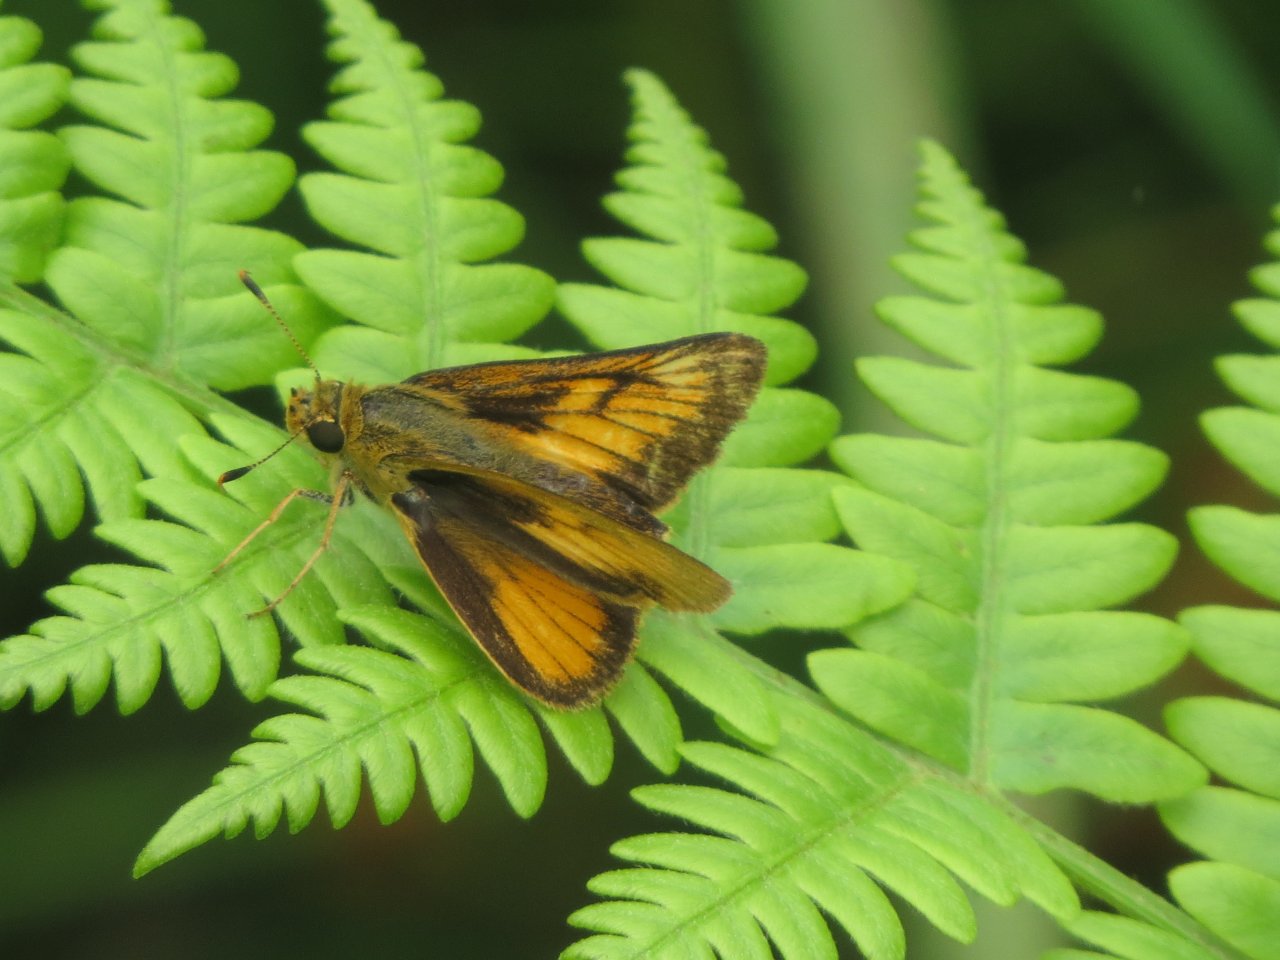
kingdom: Animalia
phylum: Arthropoda
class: Insecta
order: Lepidoptera
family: Hesperiidae
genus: Atrytone
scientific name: Atrytone delaware
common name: Delaware Skipper
